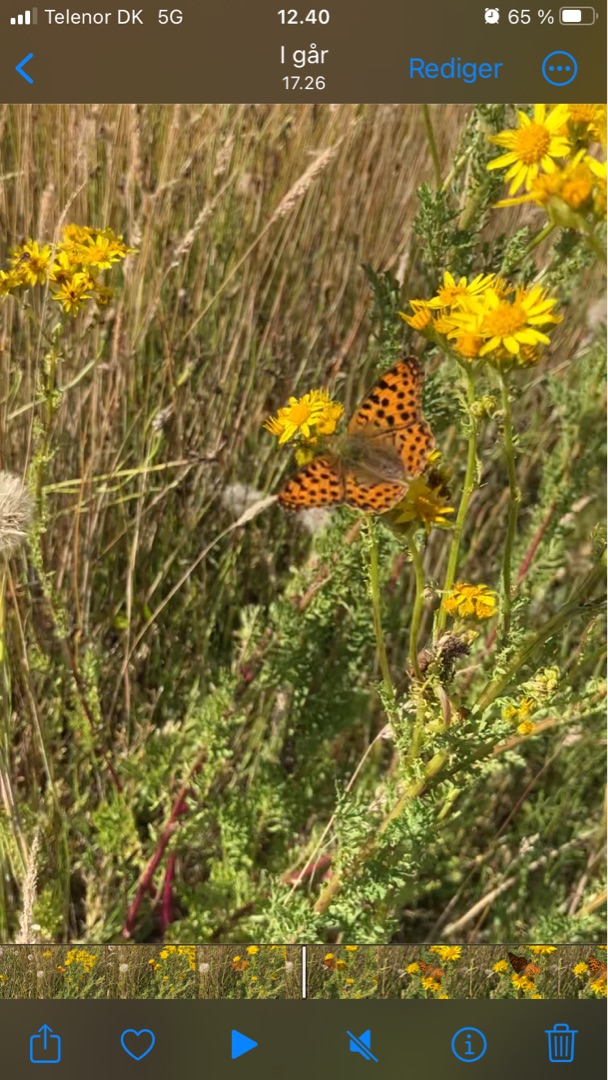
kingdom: Animalia
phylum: Arthropoda
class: Insecta
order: Lepidoptera
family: Nymphalidae
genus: Issoria
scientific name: Issoria lathonia
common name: Storplettet perlemorsommerfugl
